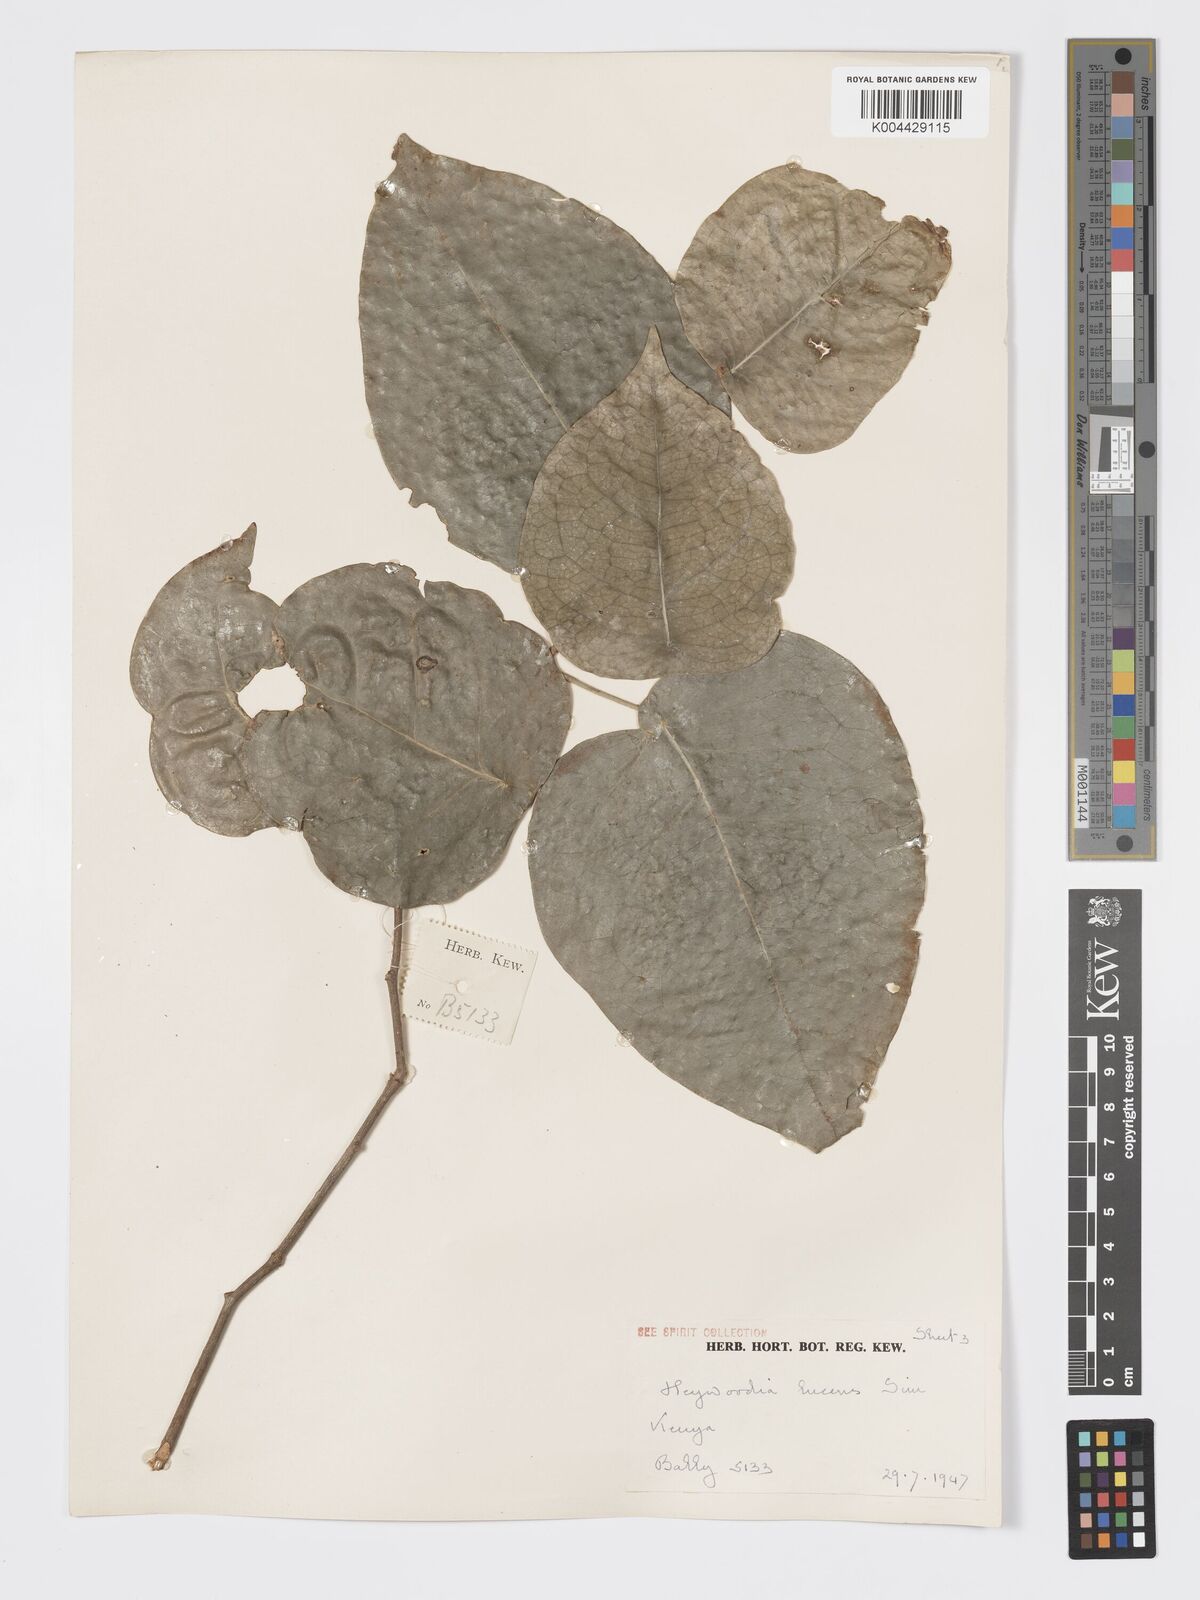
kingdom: Plantae
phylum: Tracheophyta
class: Magnoliopsida
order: Malpighiales
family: Phyllanthaceae
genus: Heywoodia
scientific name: Heywoodia lucens
